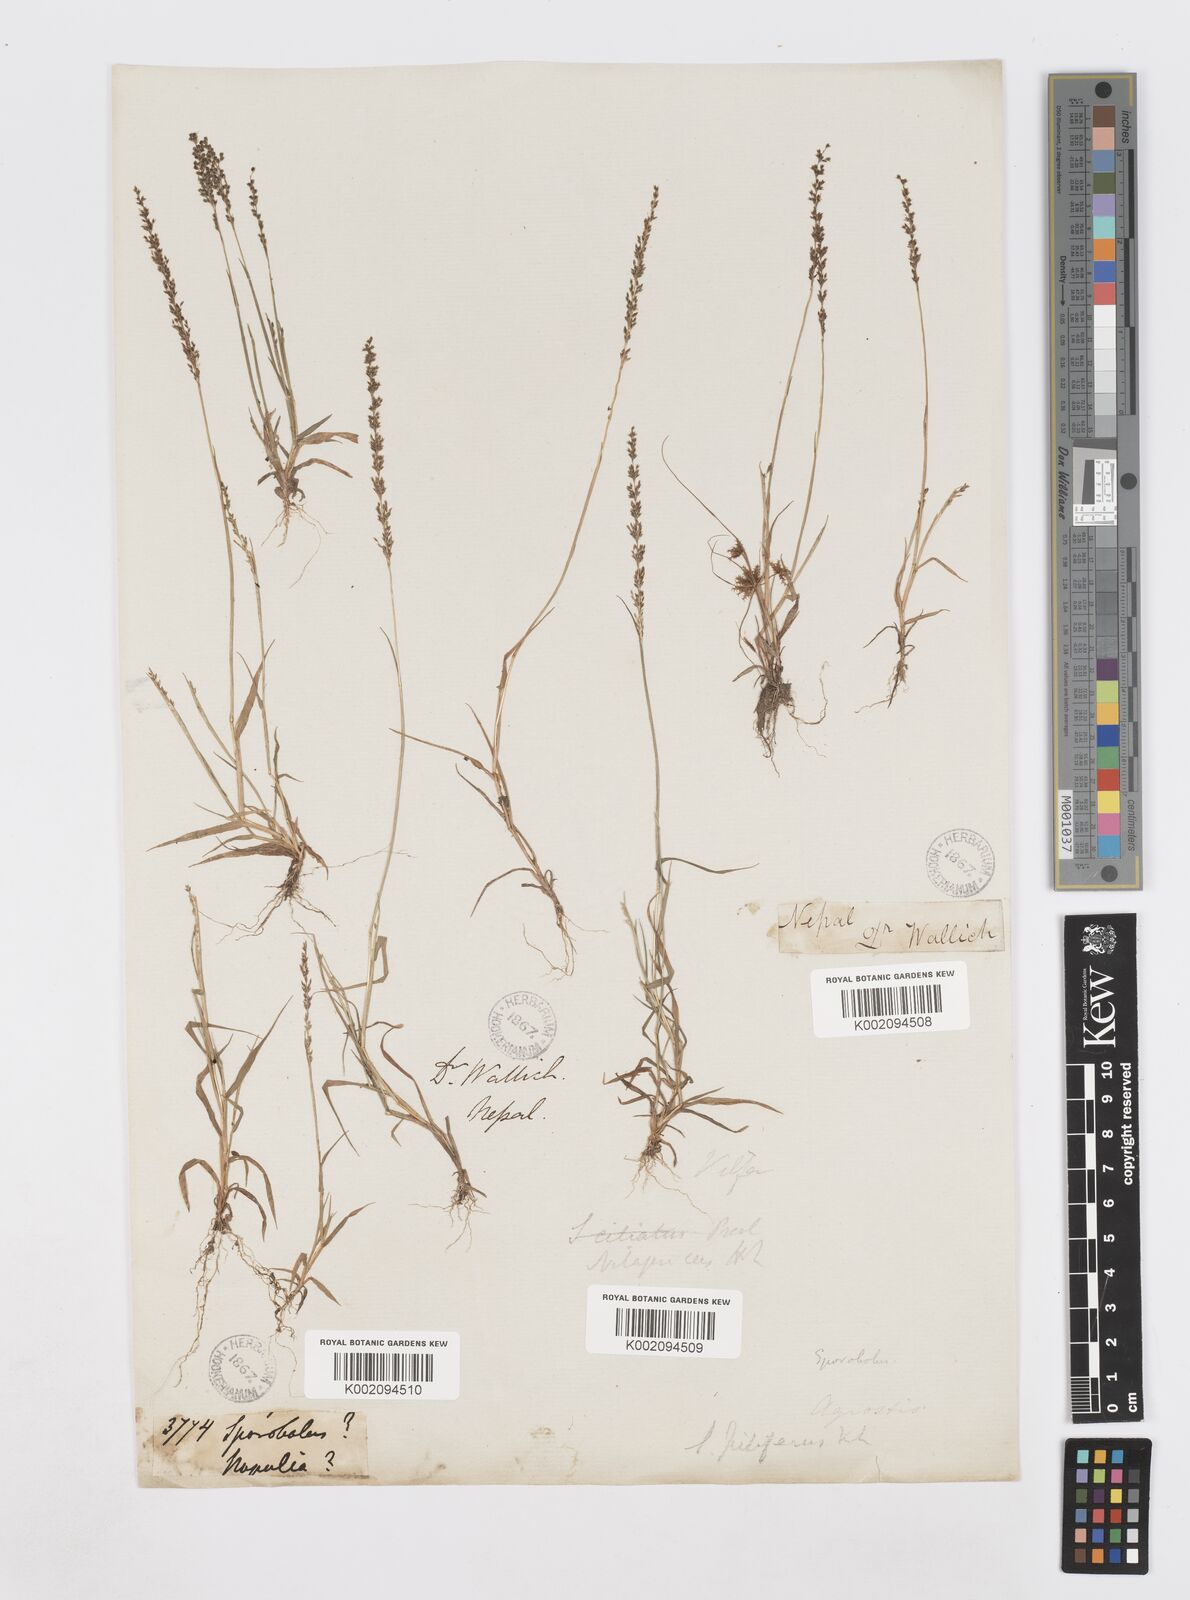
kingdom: Plantae
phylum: Tracheophyta
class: Liliopsida
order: Poales
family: Poaceae
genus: Sporobolus
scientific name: Sporobolus pilifer
